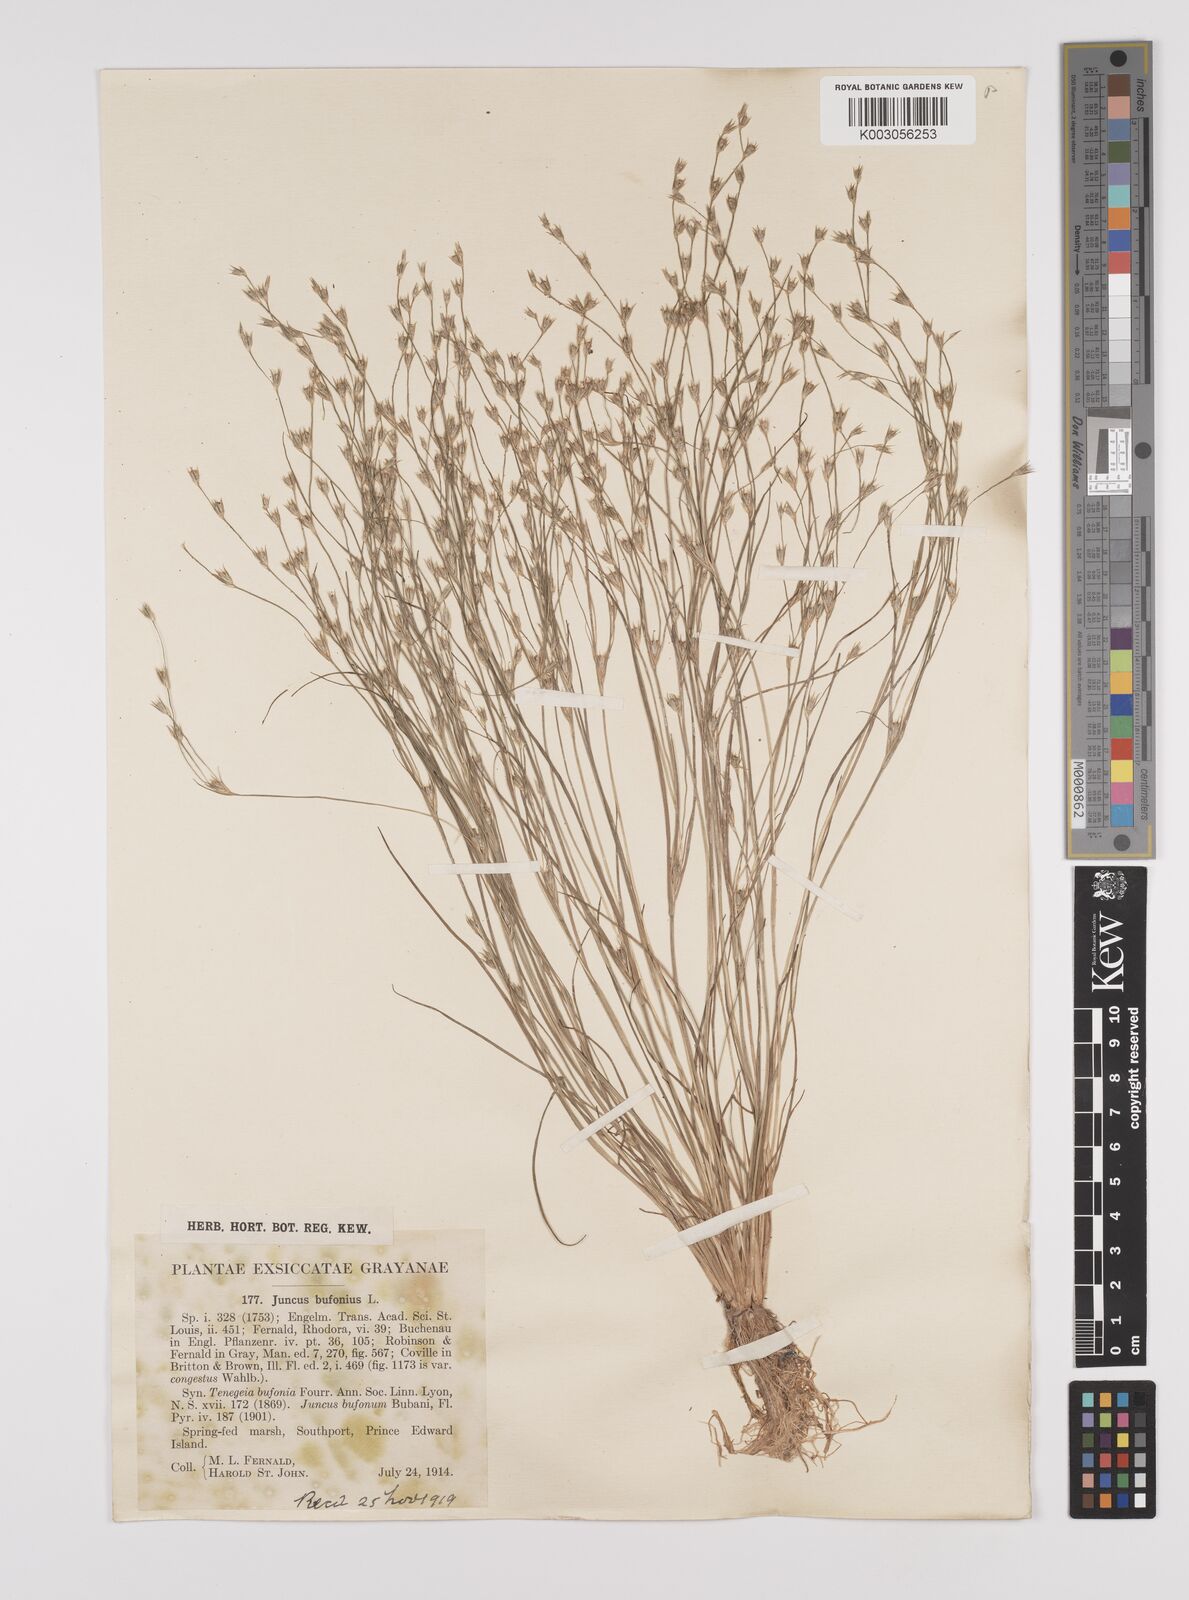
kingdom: Plantae
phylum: Tracheophyta
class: Liliopsida
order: Poales
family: Juncaceae
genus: Juncus
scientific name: Juncus bufonius
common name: Toad rush
